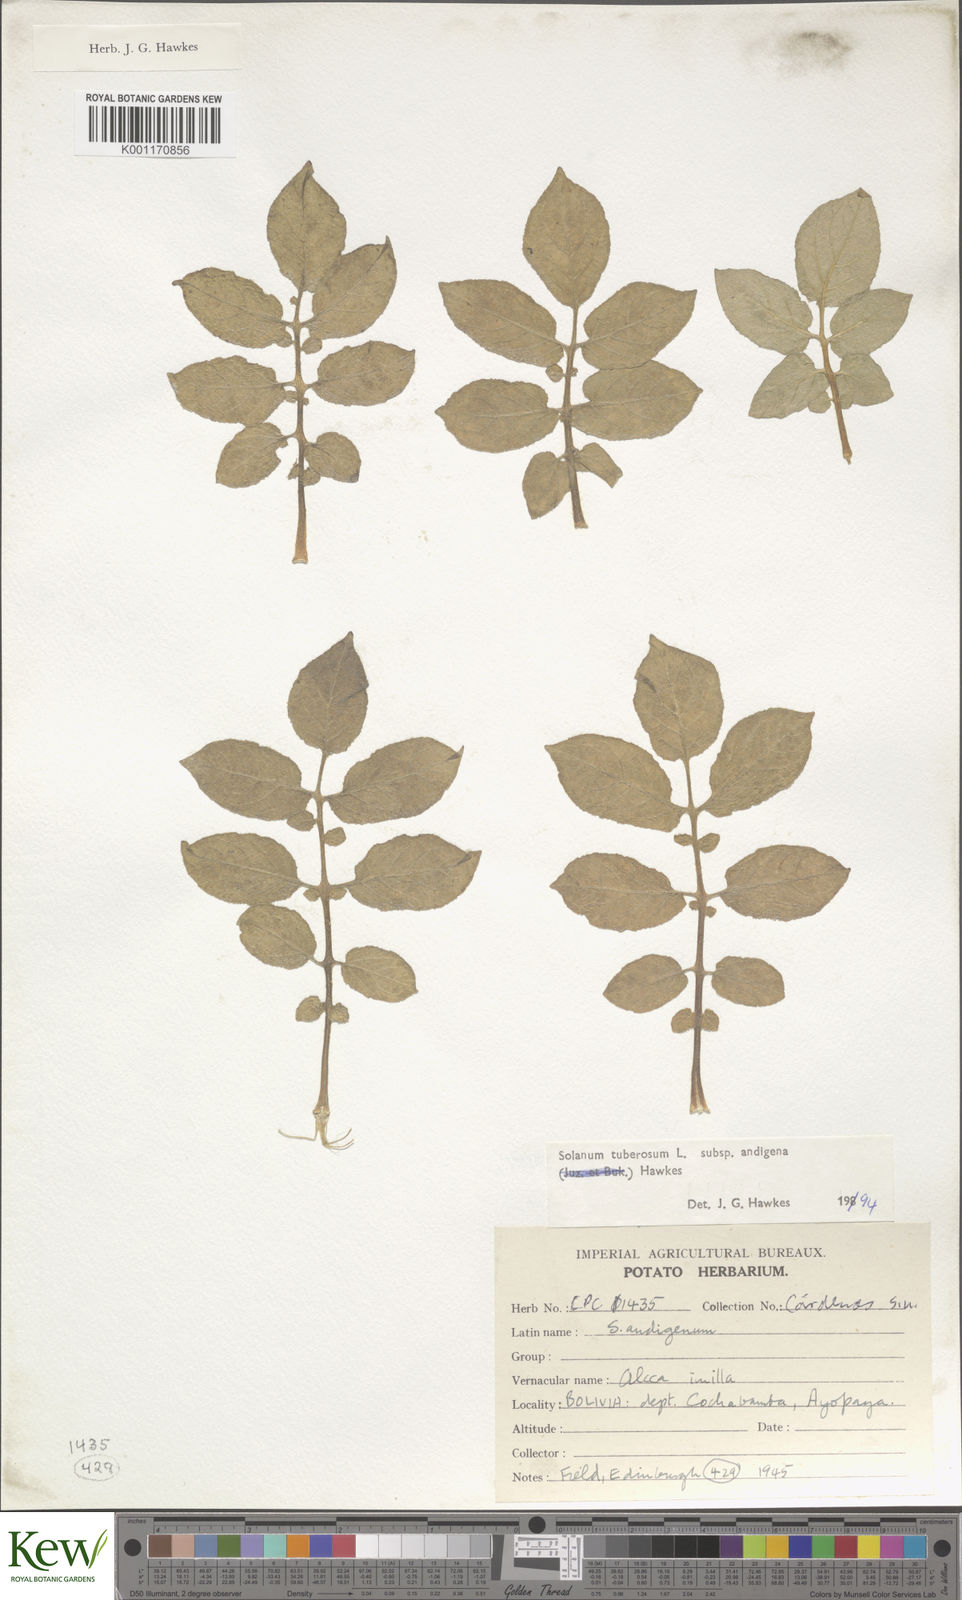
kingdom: Plantae
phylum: Tracheophyta
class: Magnoliopsida
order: Solanales
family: Solanaceae
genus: Solanum
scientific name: Solanum tuberosum
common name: Potato
